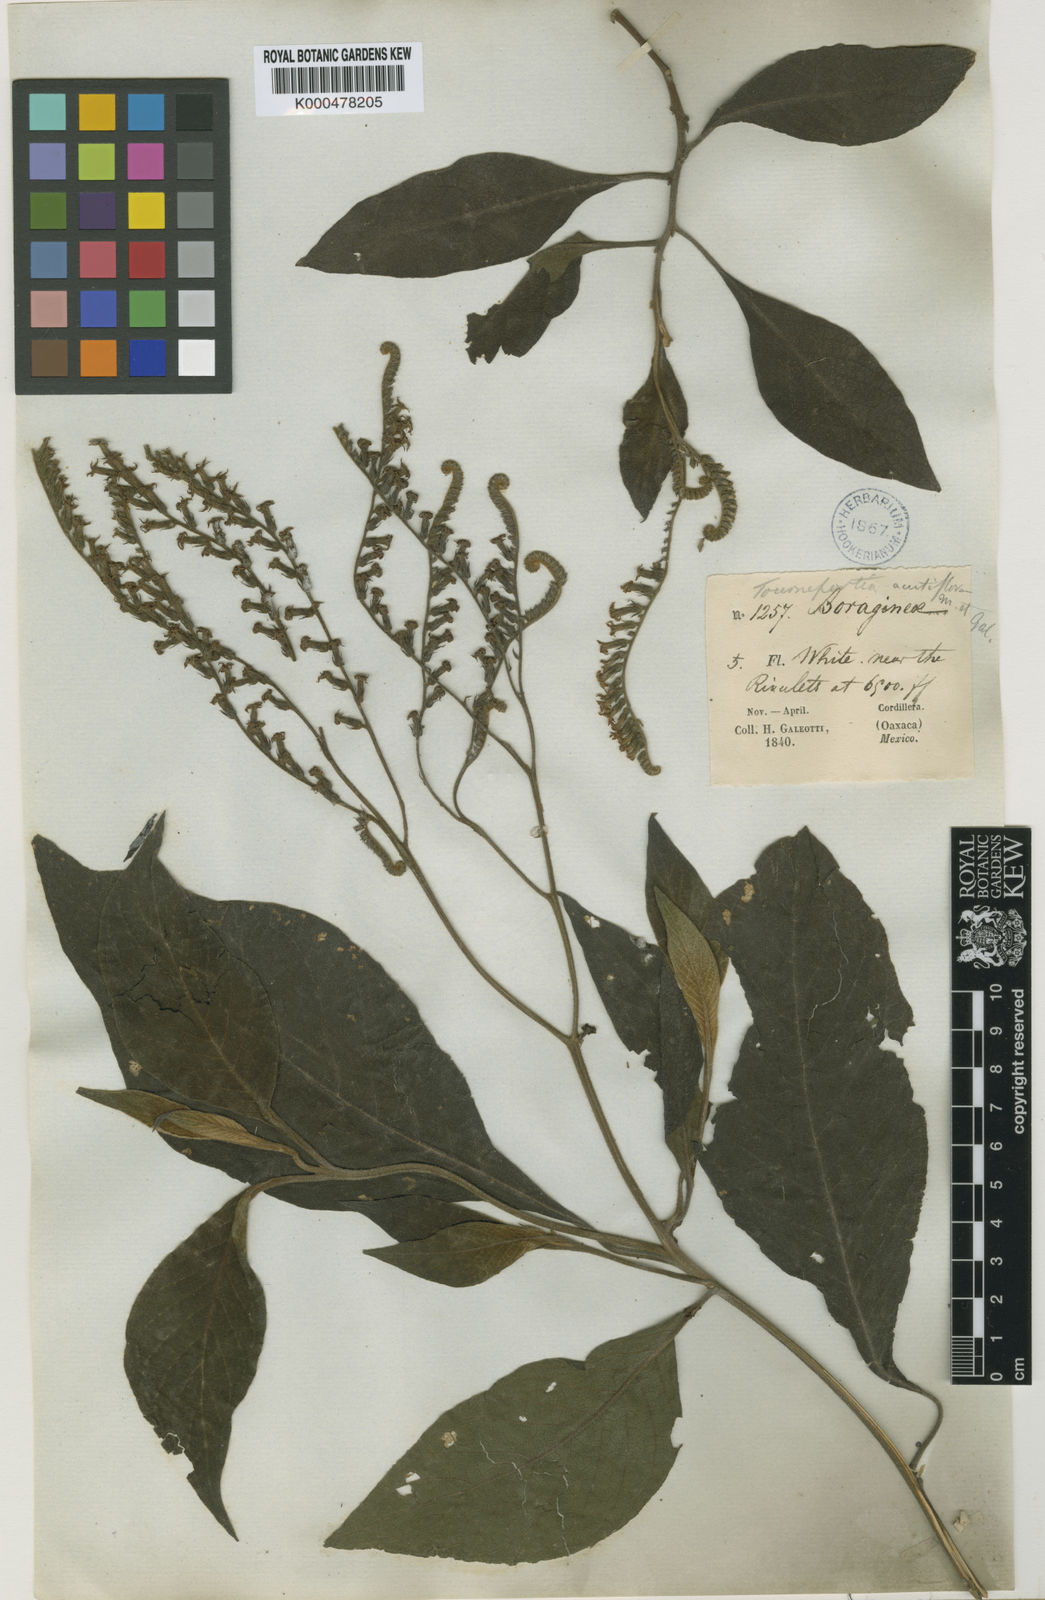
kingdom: Plantae
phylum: Tracheophyta
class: Magnoliopsida
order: Boraginales
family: Heliotropiaceae
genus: Heliotropium
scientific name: Heliotropium petiolare
